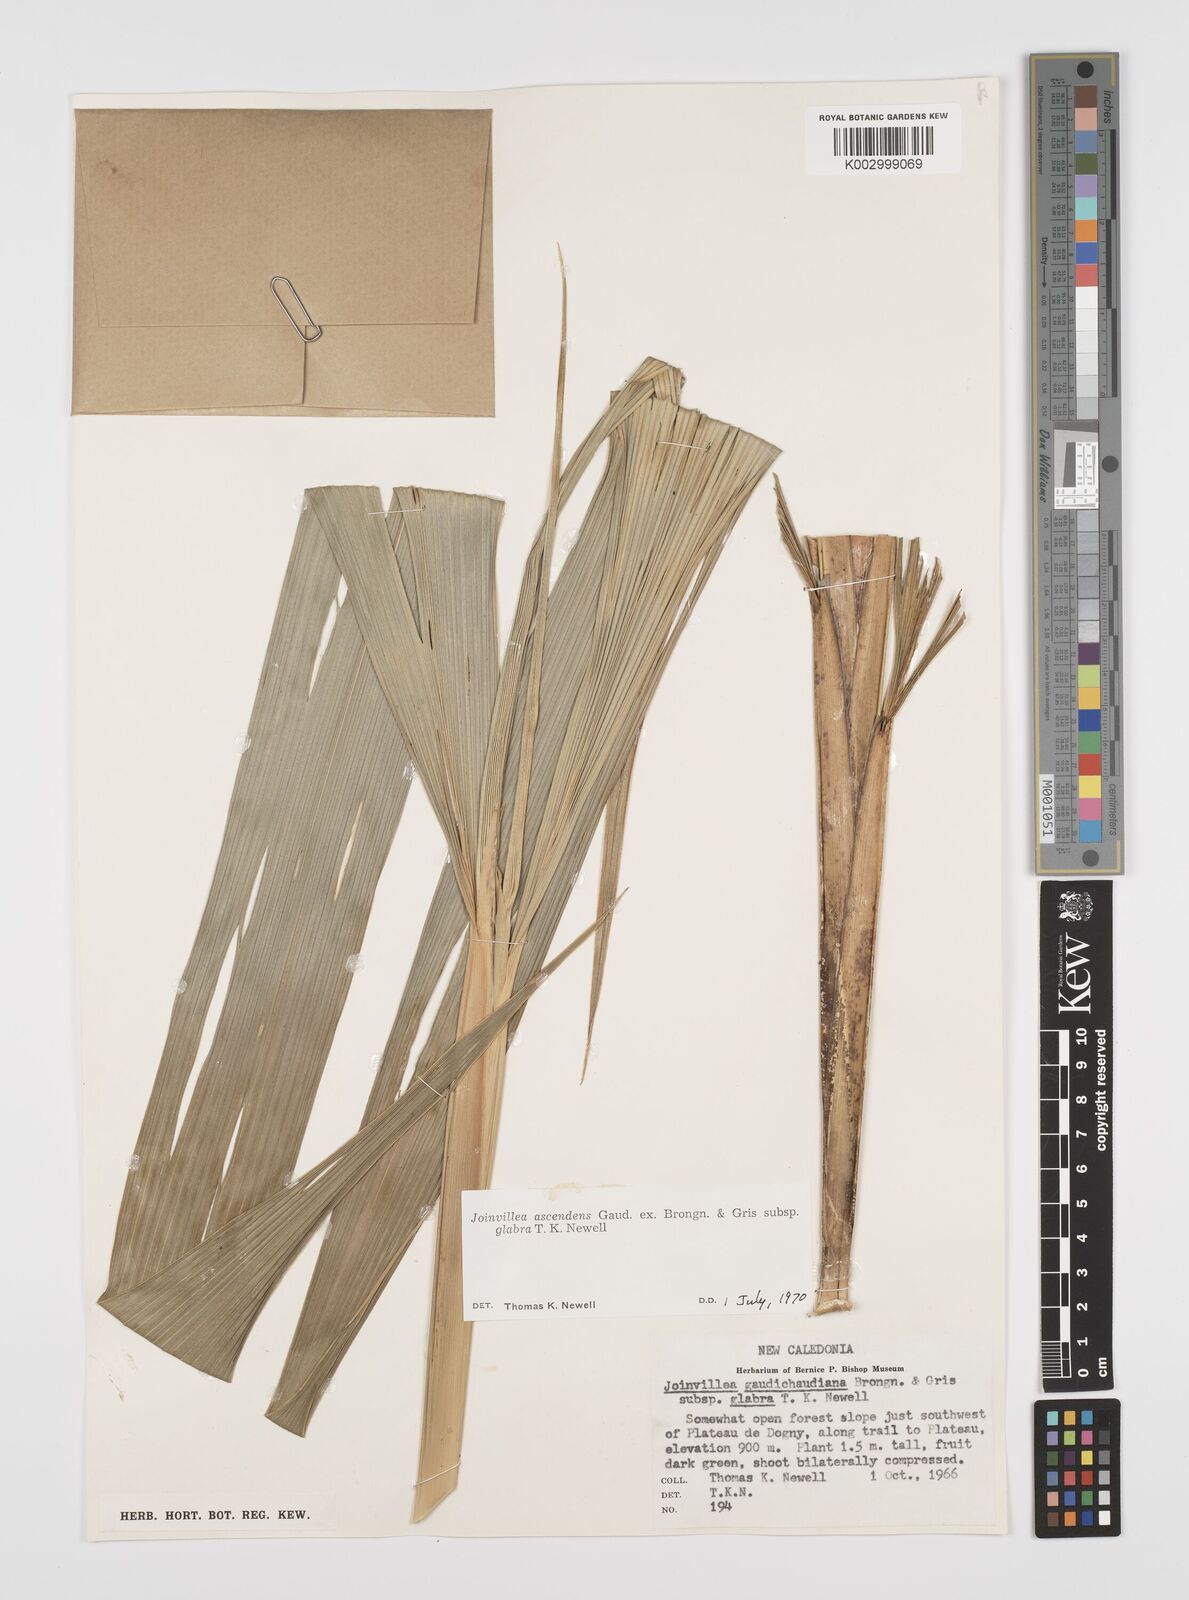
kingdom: Plantae
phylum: Tracheophyta
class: Liliopsida
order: Poales
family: Joinvilleaceae
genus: Joinvillea
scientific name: Joinvillea ascendens
